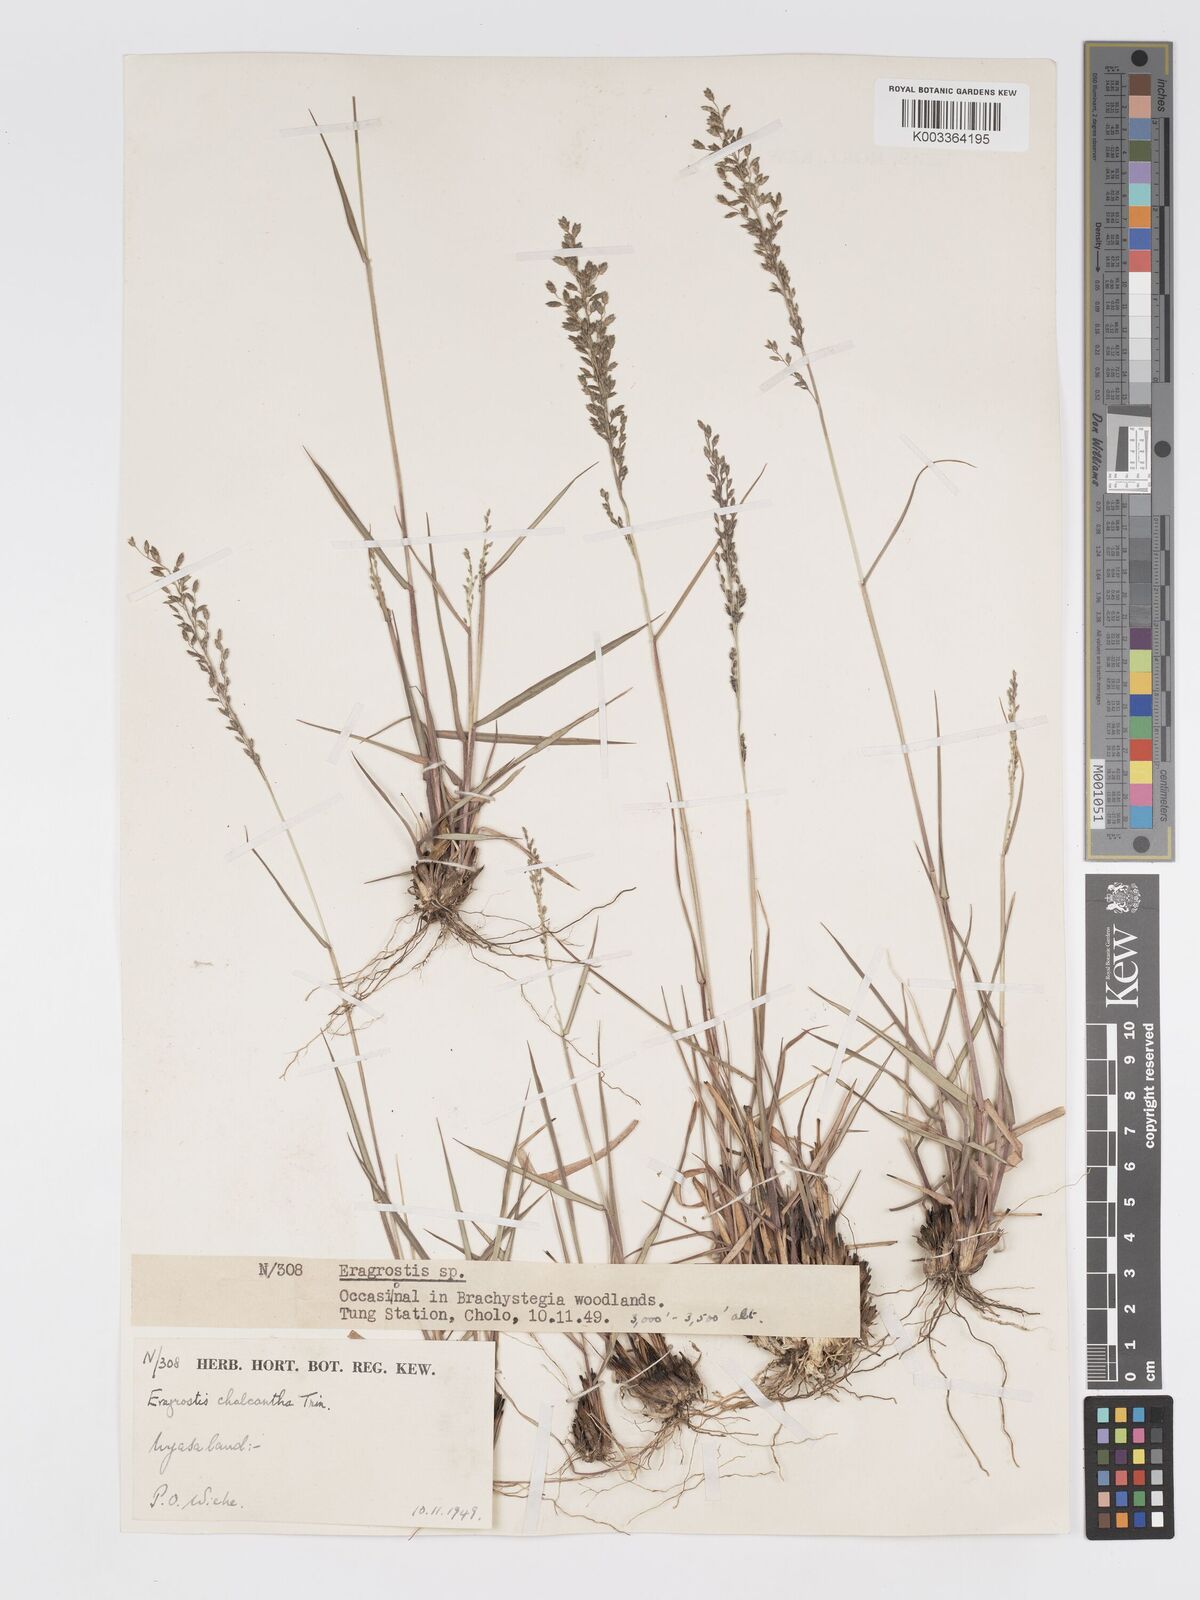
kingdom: Plantae
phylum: Tracheophyta
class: Liliopsida
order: Poales
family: Poaceae
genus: Eragrostis
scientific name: Eragrostis racemosa
